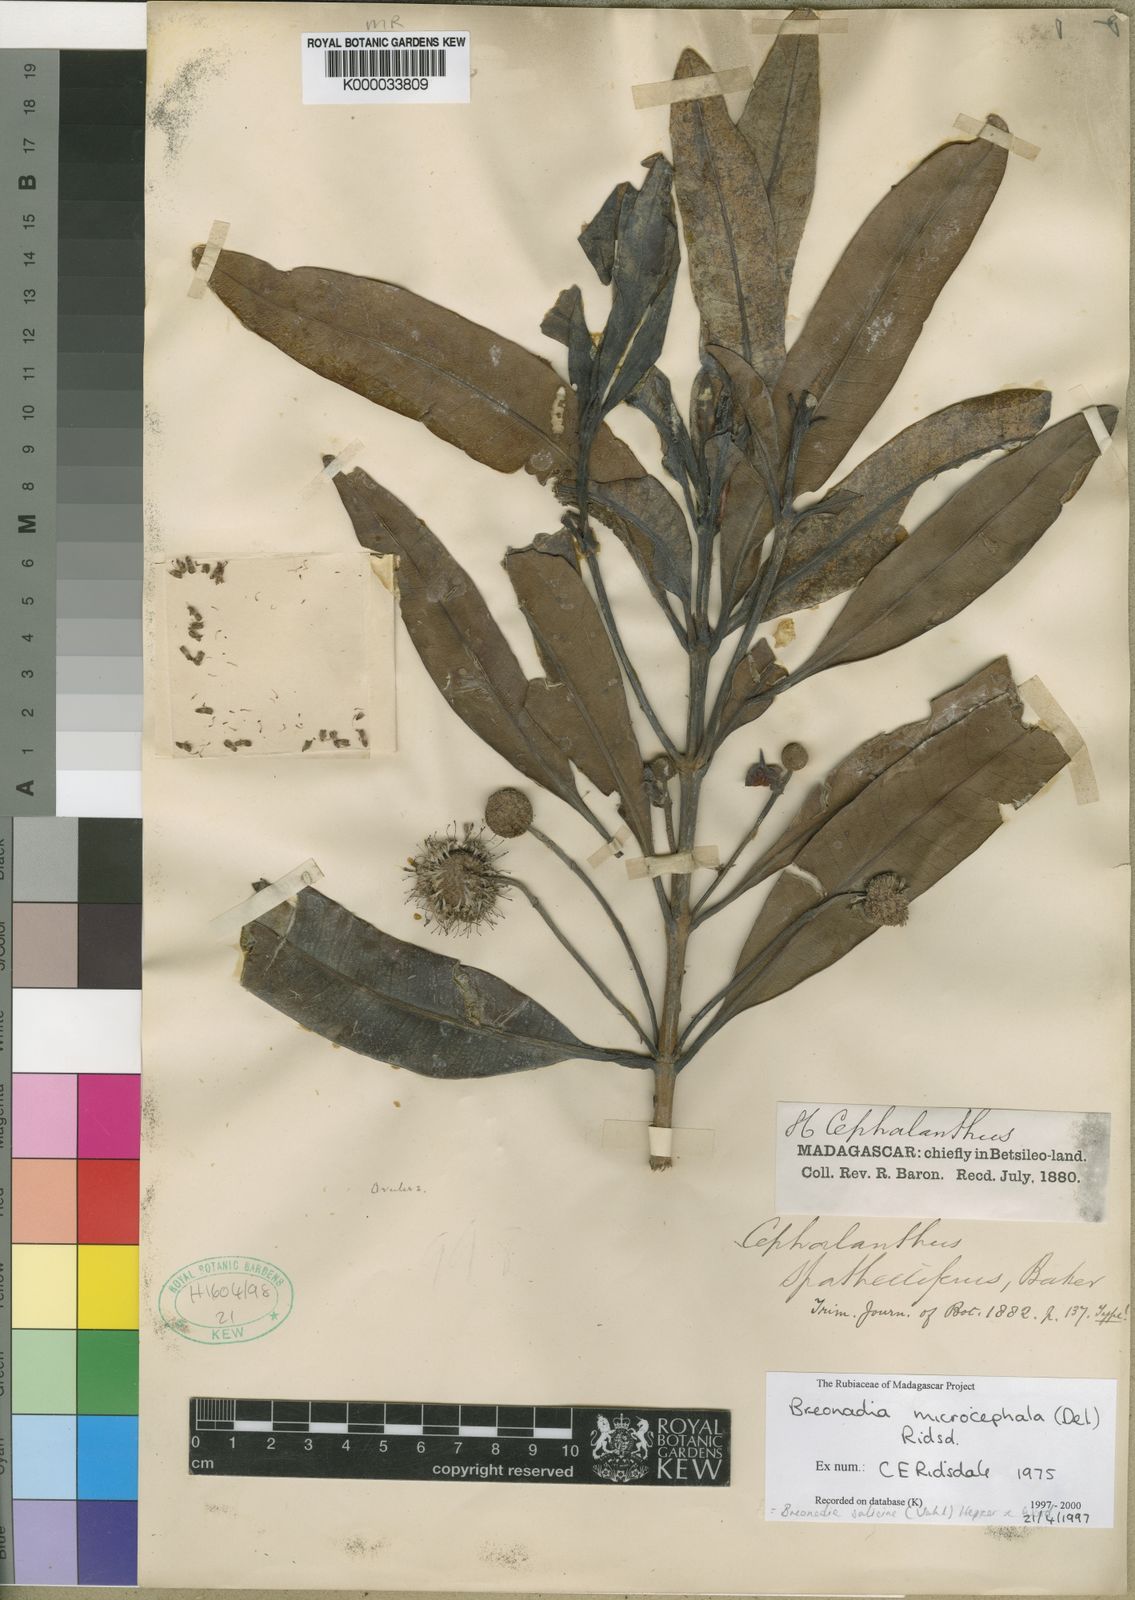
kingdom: Plantae
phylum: Tracheophyta
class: Magnoliopsida
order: Gentianales
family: Rubiaceae
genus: Breonadia
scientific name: Breonadia salicina
